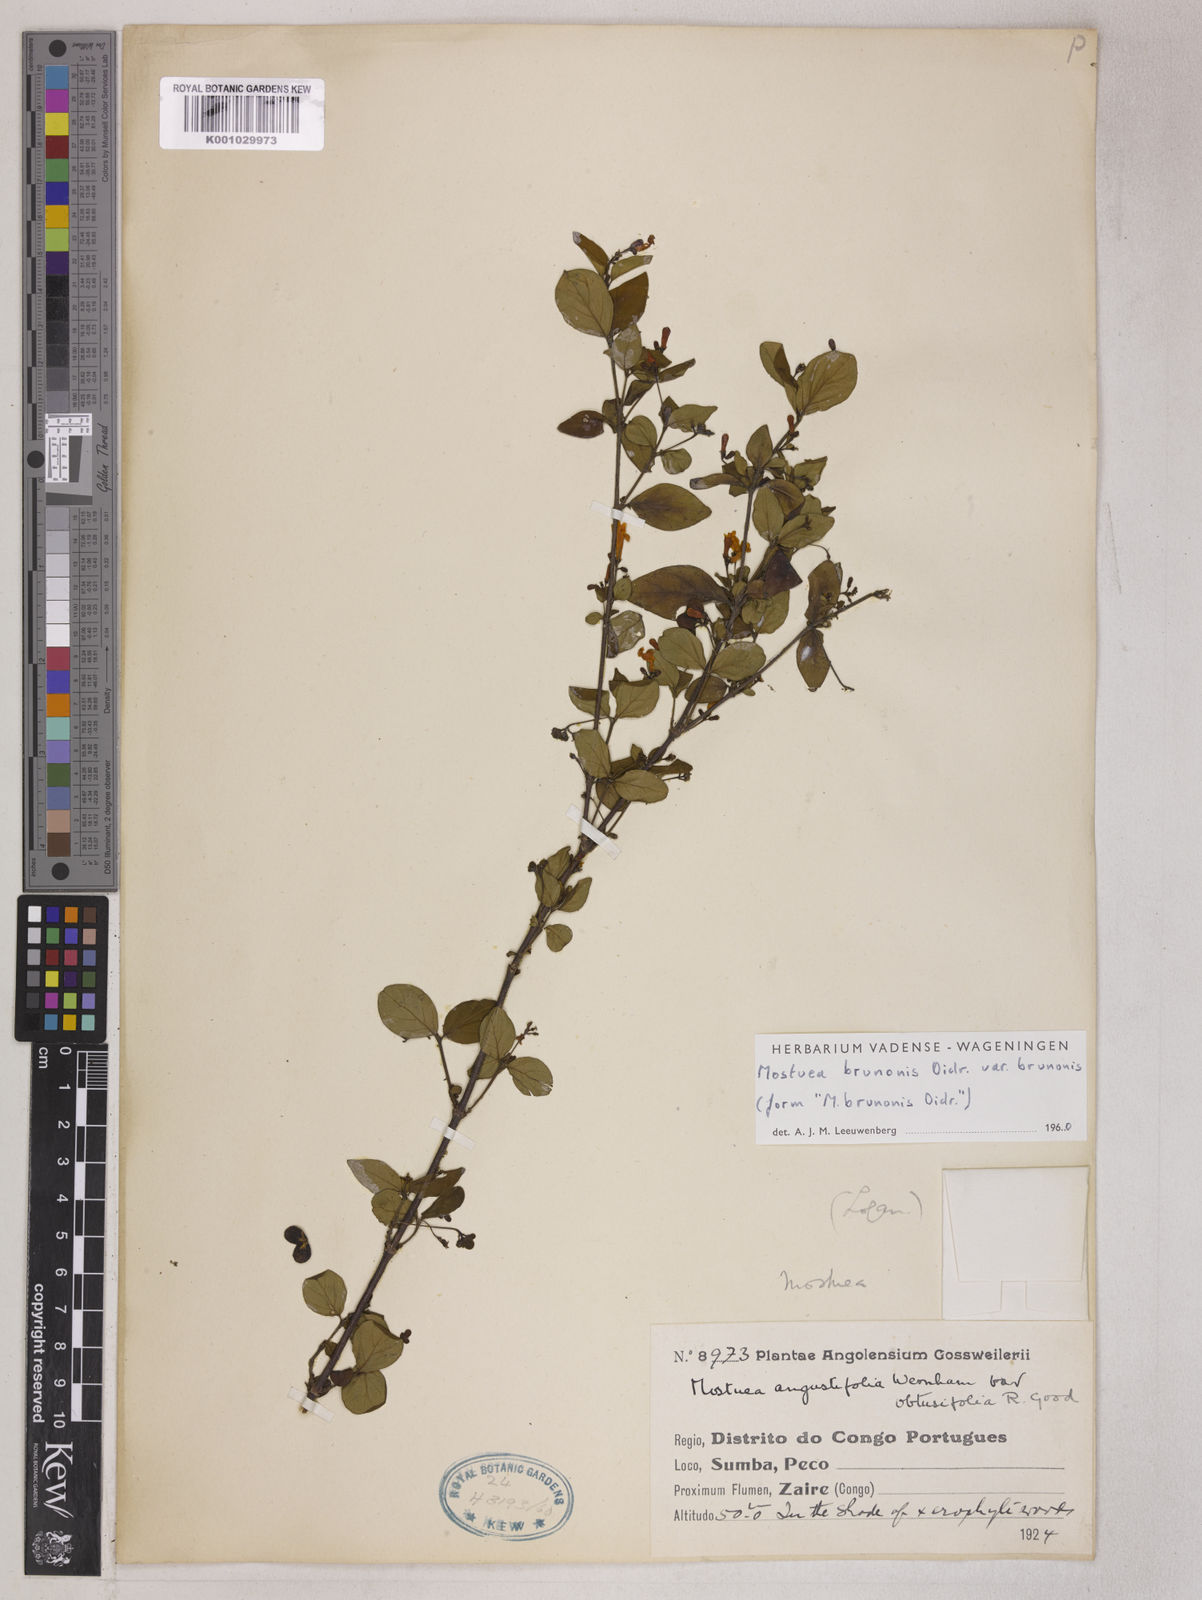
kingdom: Plantae
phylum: Tracheophyta
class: Magnoliopsida
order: Gentianales
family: Gelsemiaceae
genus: Mostuea
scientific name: Mostuea brunonis
